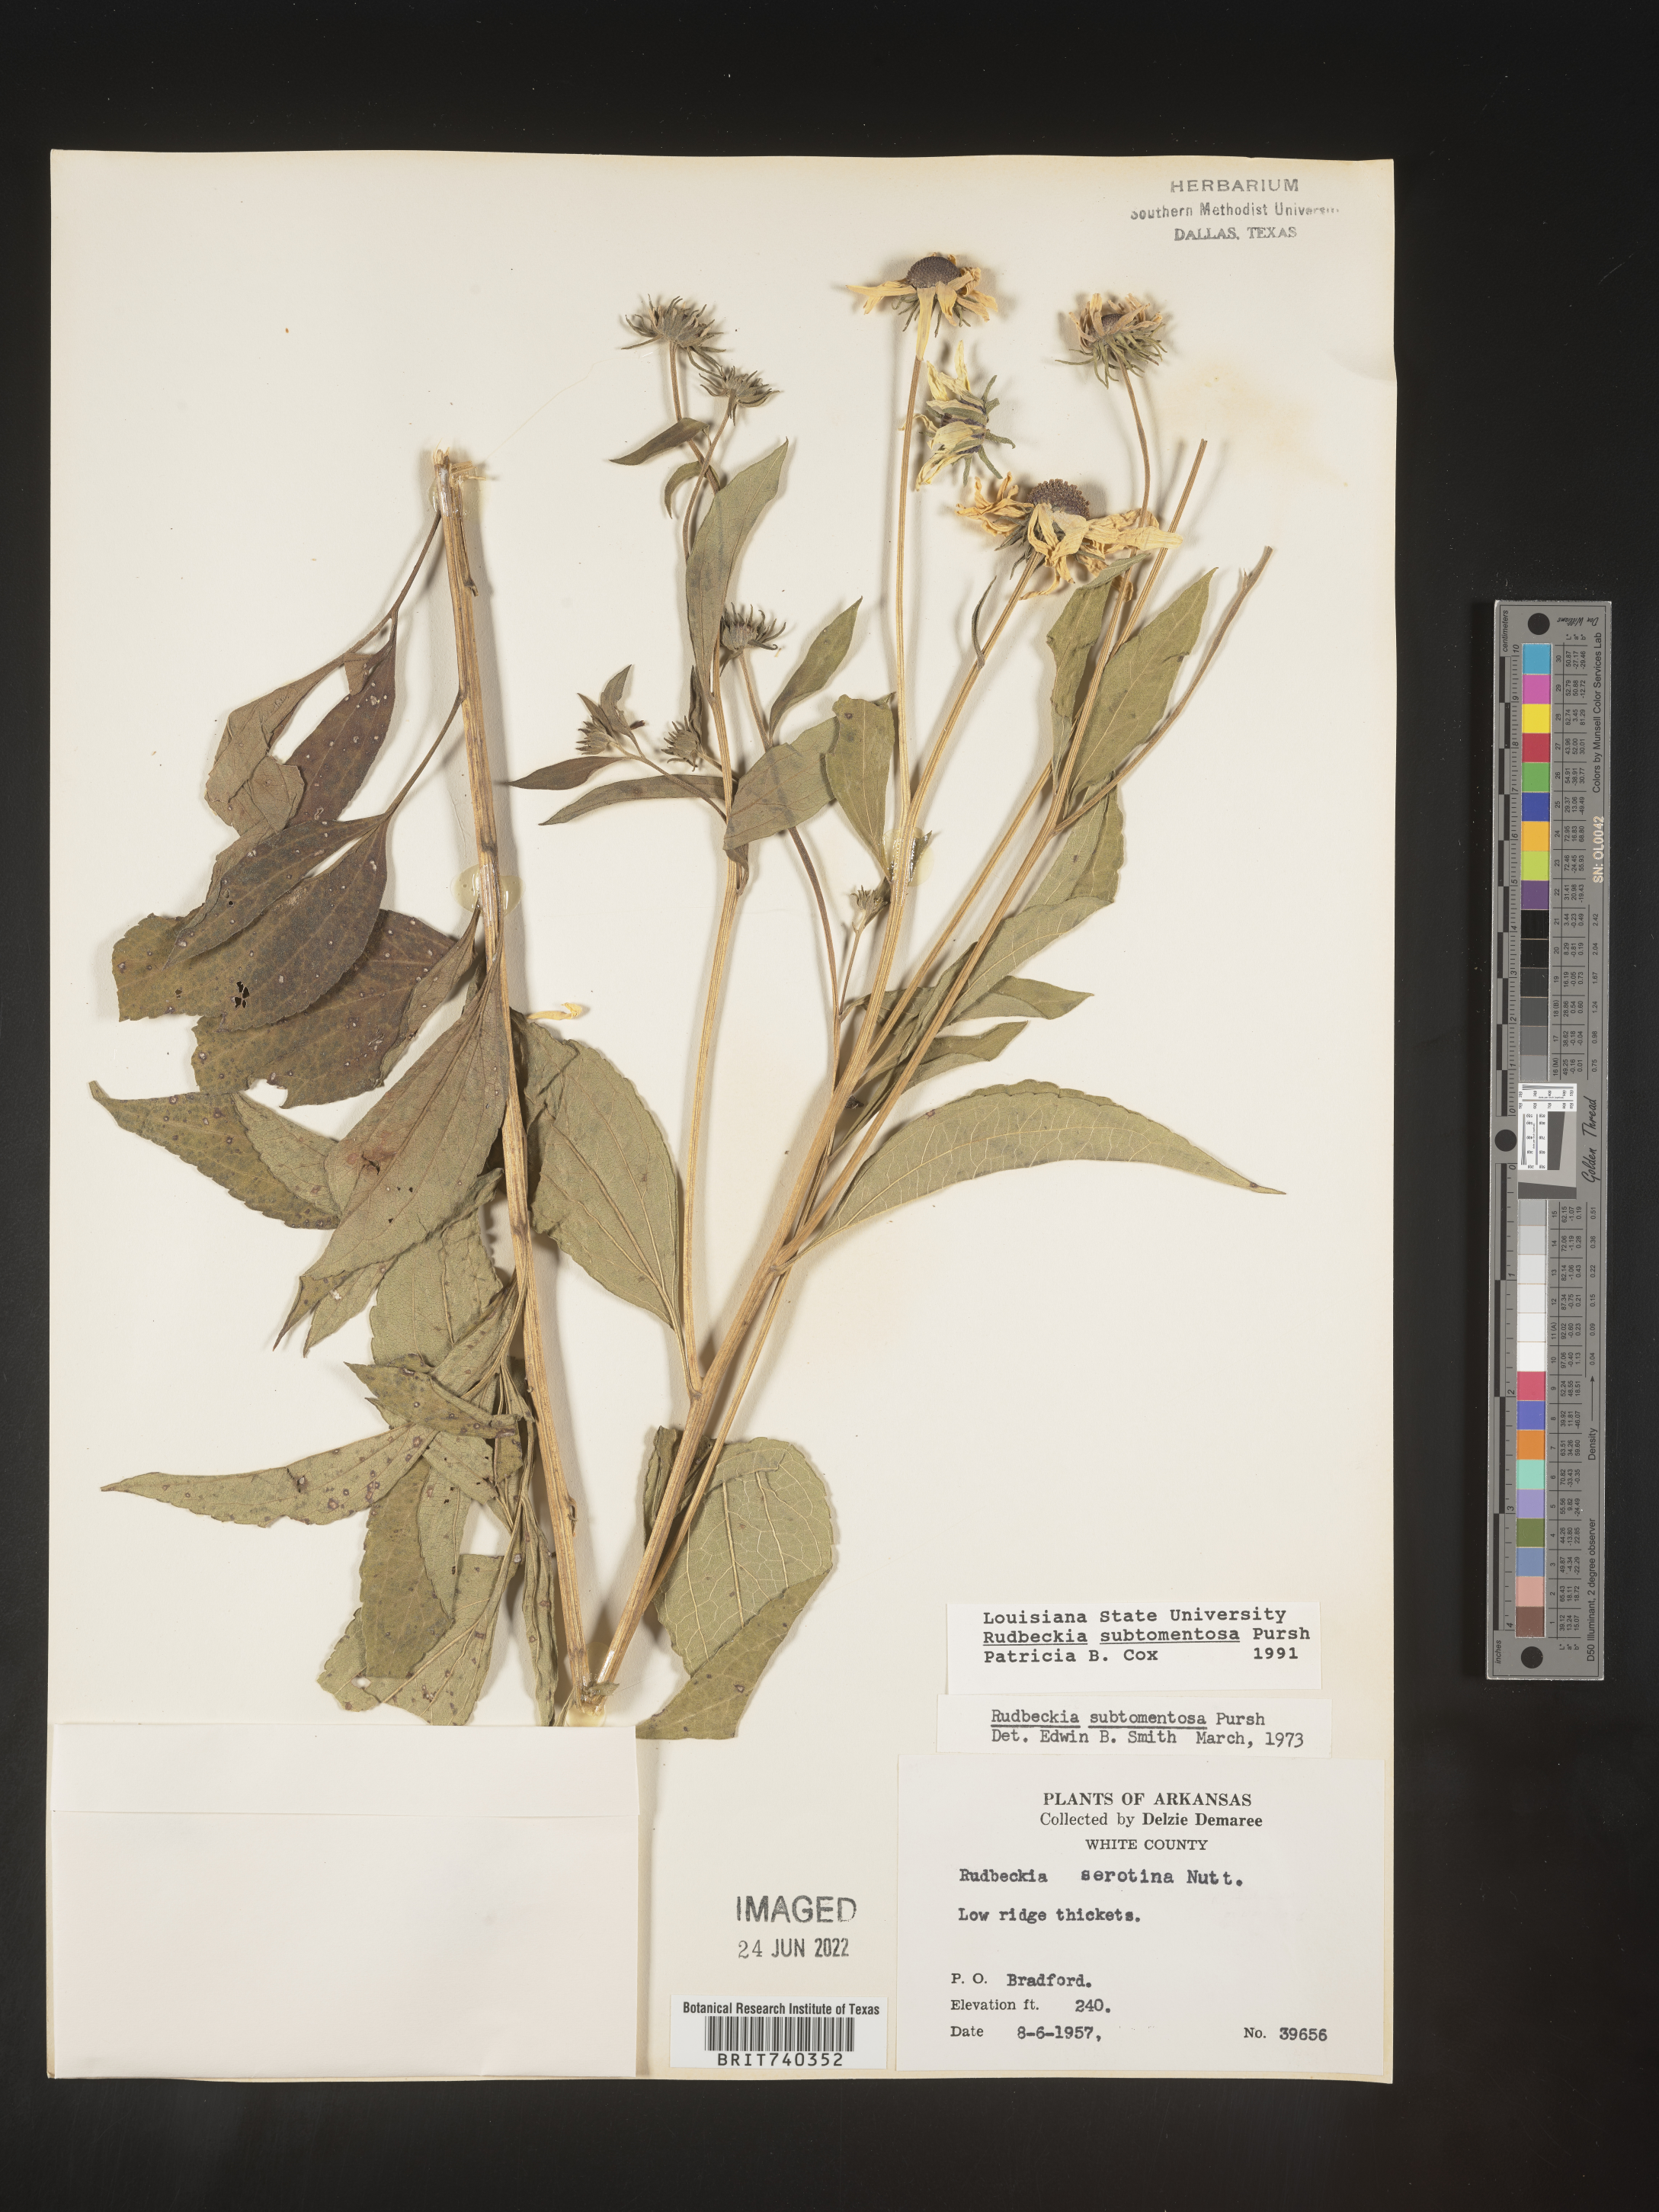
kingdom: Plantae
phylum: Tracheophyta
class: Magnoliopsida
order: Asterales
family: Asteraceae
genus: Rudbeckia
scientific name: Rudbeckia subtomentosa
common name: Sweet coneflower
